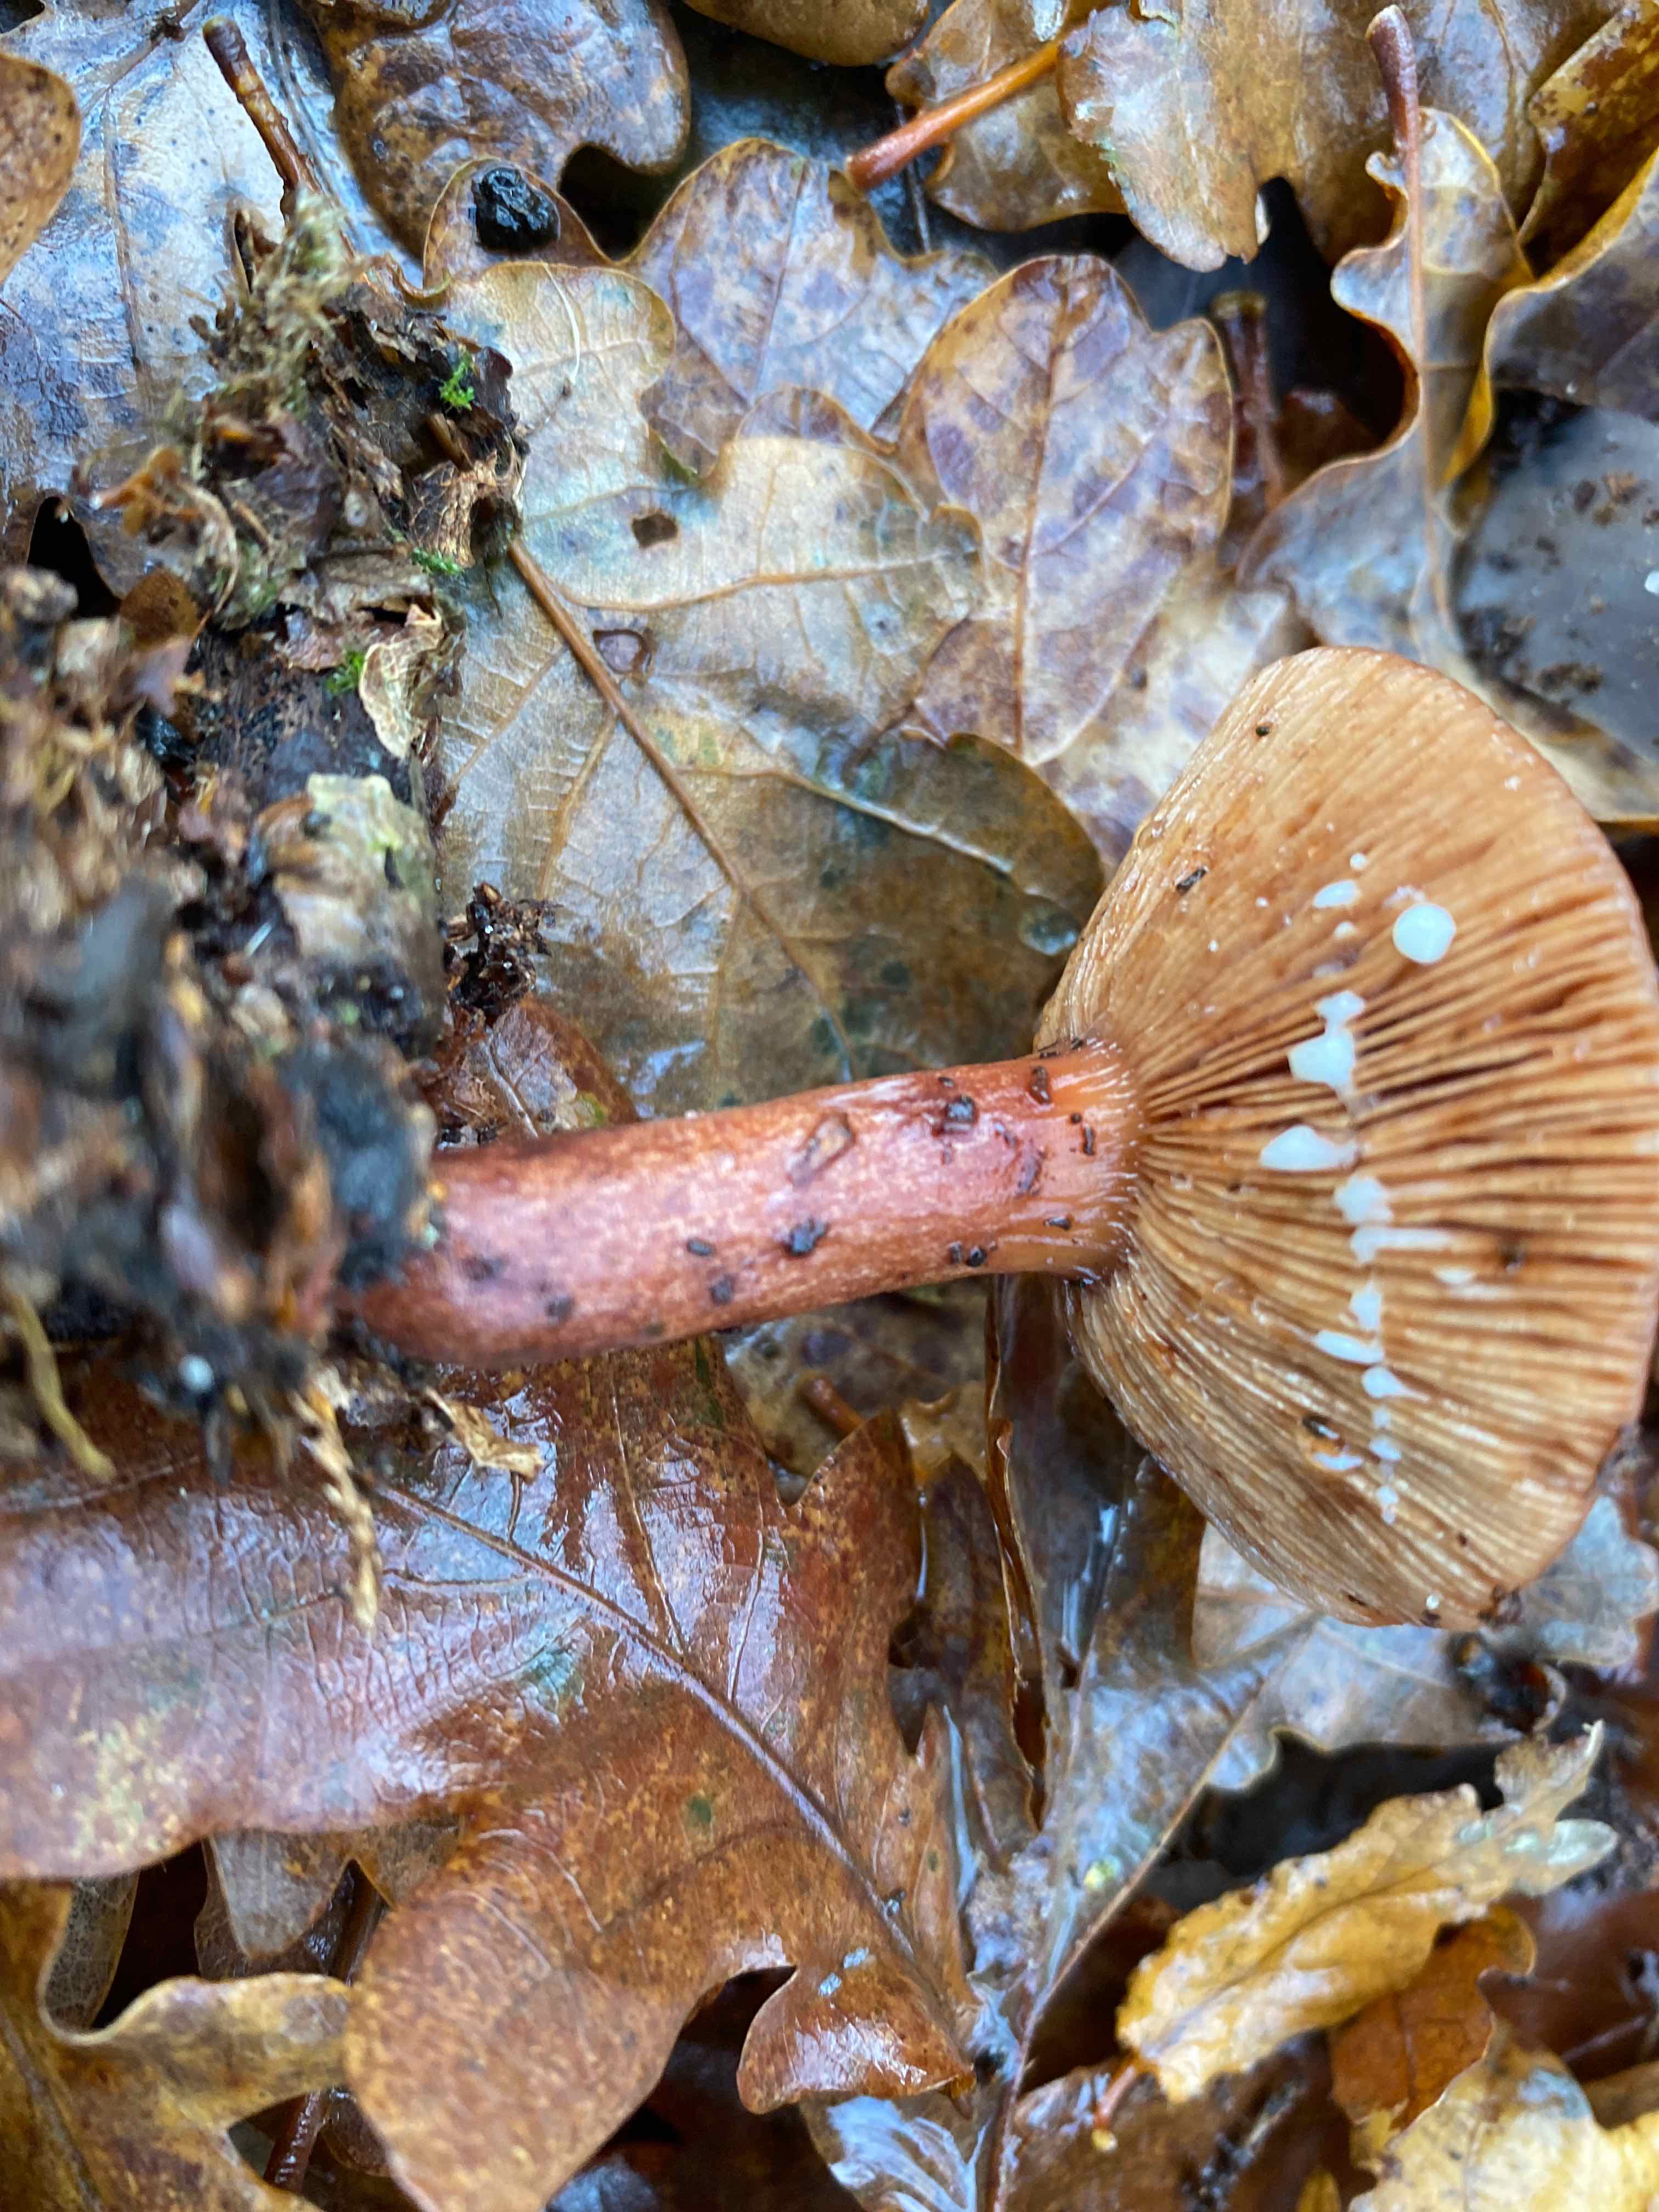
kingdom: Fungi
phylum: Basidiomycota
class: Agaricomycetes
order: Russulales
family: Russulaceae
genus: Lactarius
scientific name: Lactarius quietus
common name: ege-mælkehat
